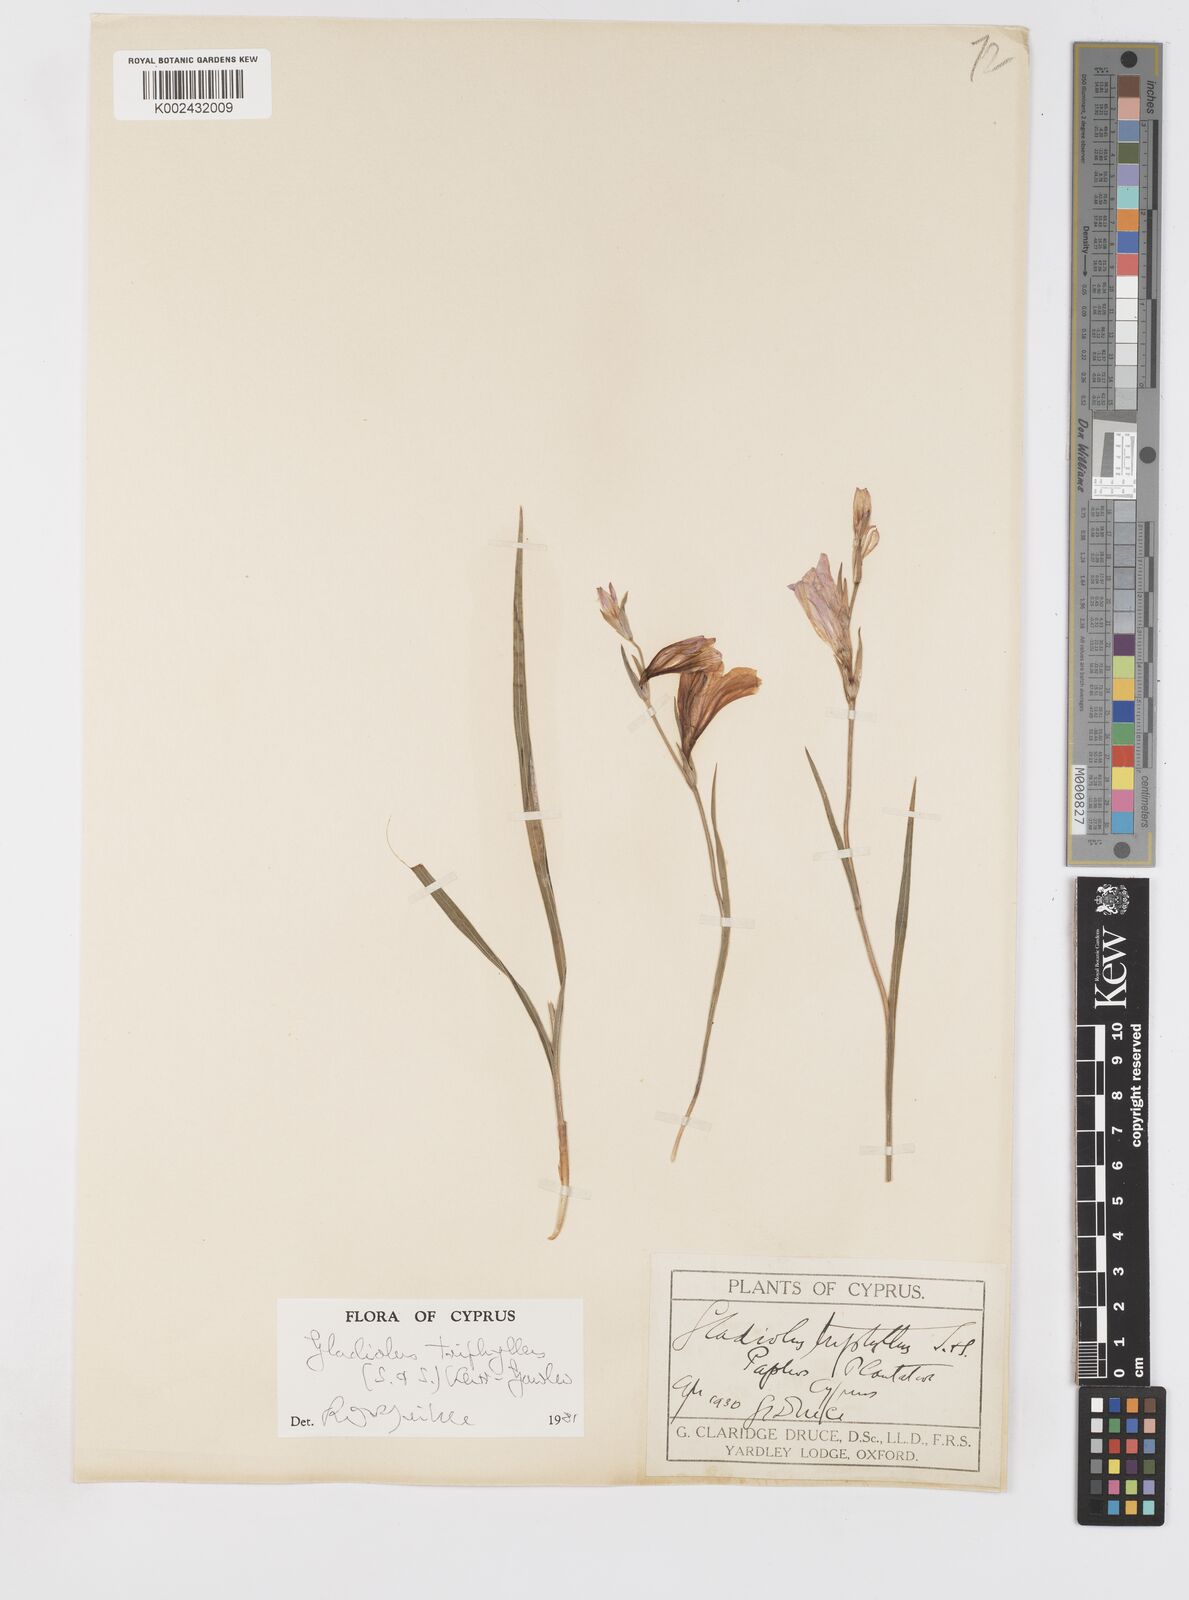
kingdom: Plantae
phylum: Tracheophyta
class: Liliopsida
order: Asparagales
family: Iridaceae
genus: Gladiolus
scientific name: Gladiolus triphyllus
